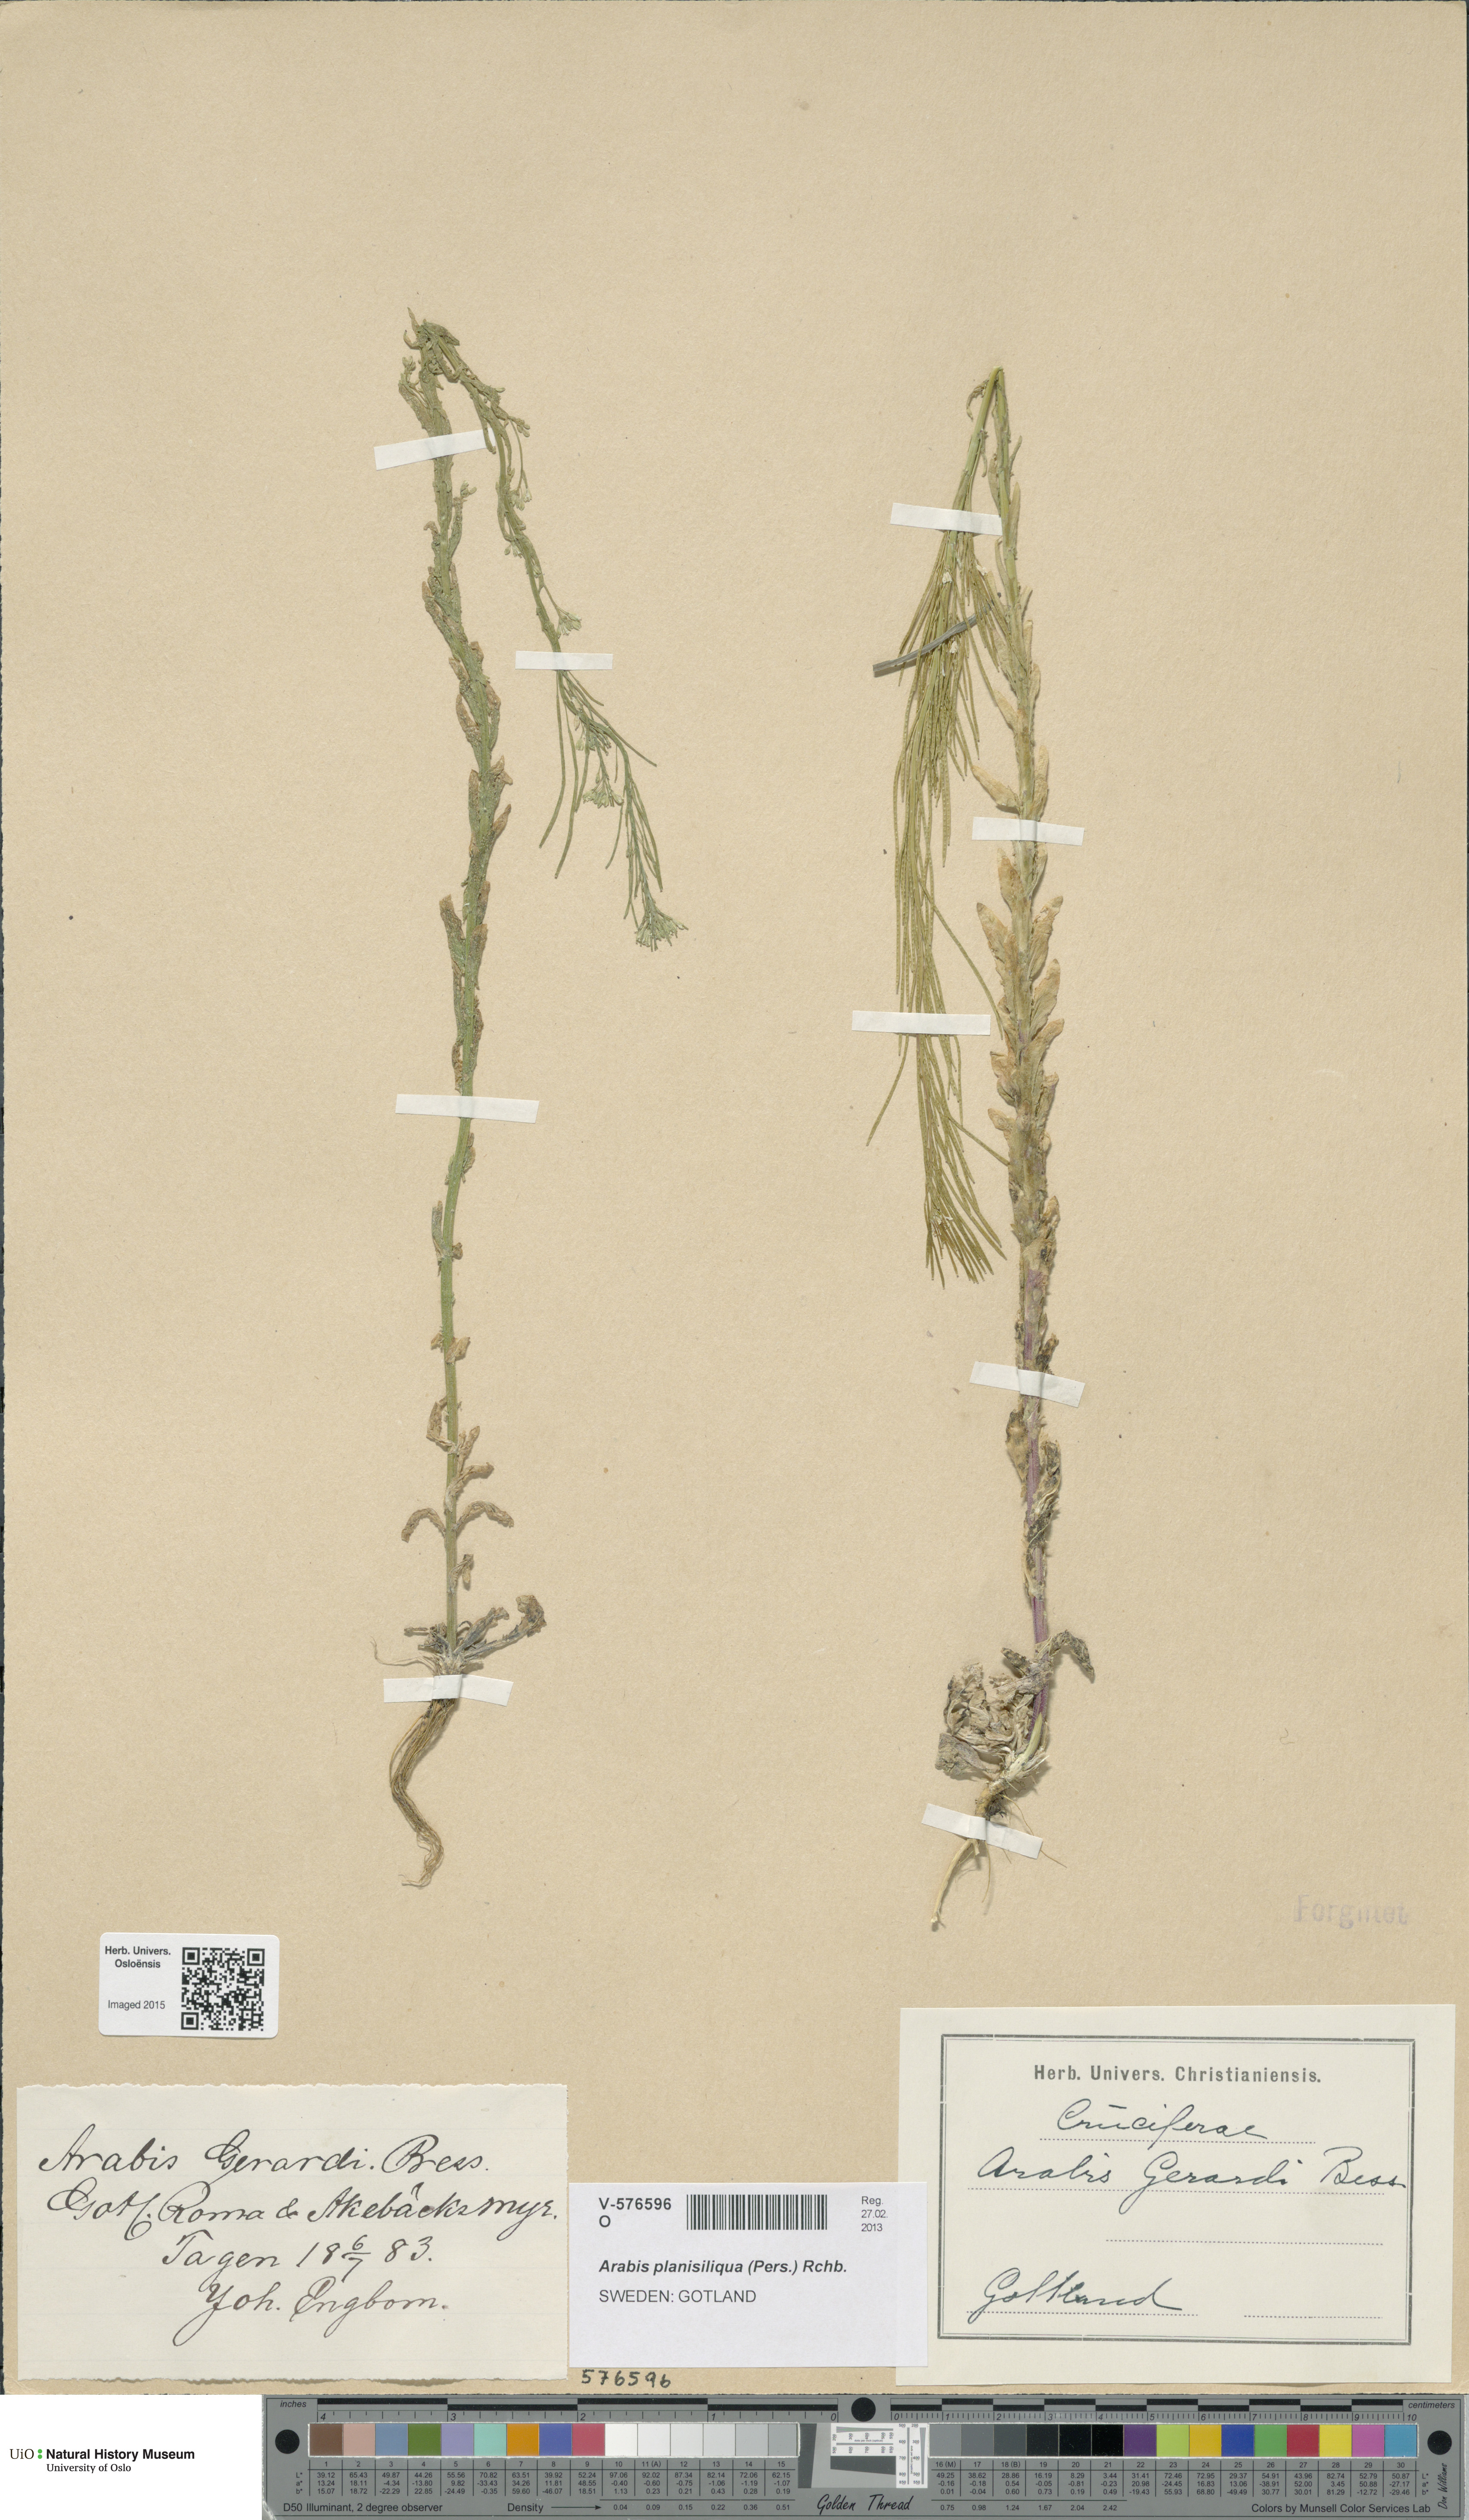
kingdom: Plantae
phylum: Tracheophyta
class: Magnoliopsida
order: Brassicales
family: Brassicaceae
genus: Arabis
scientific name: Arabis planisiliqua
